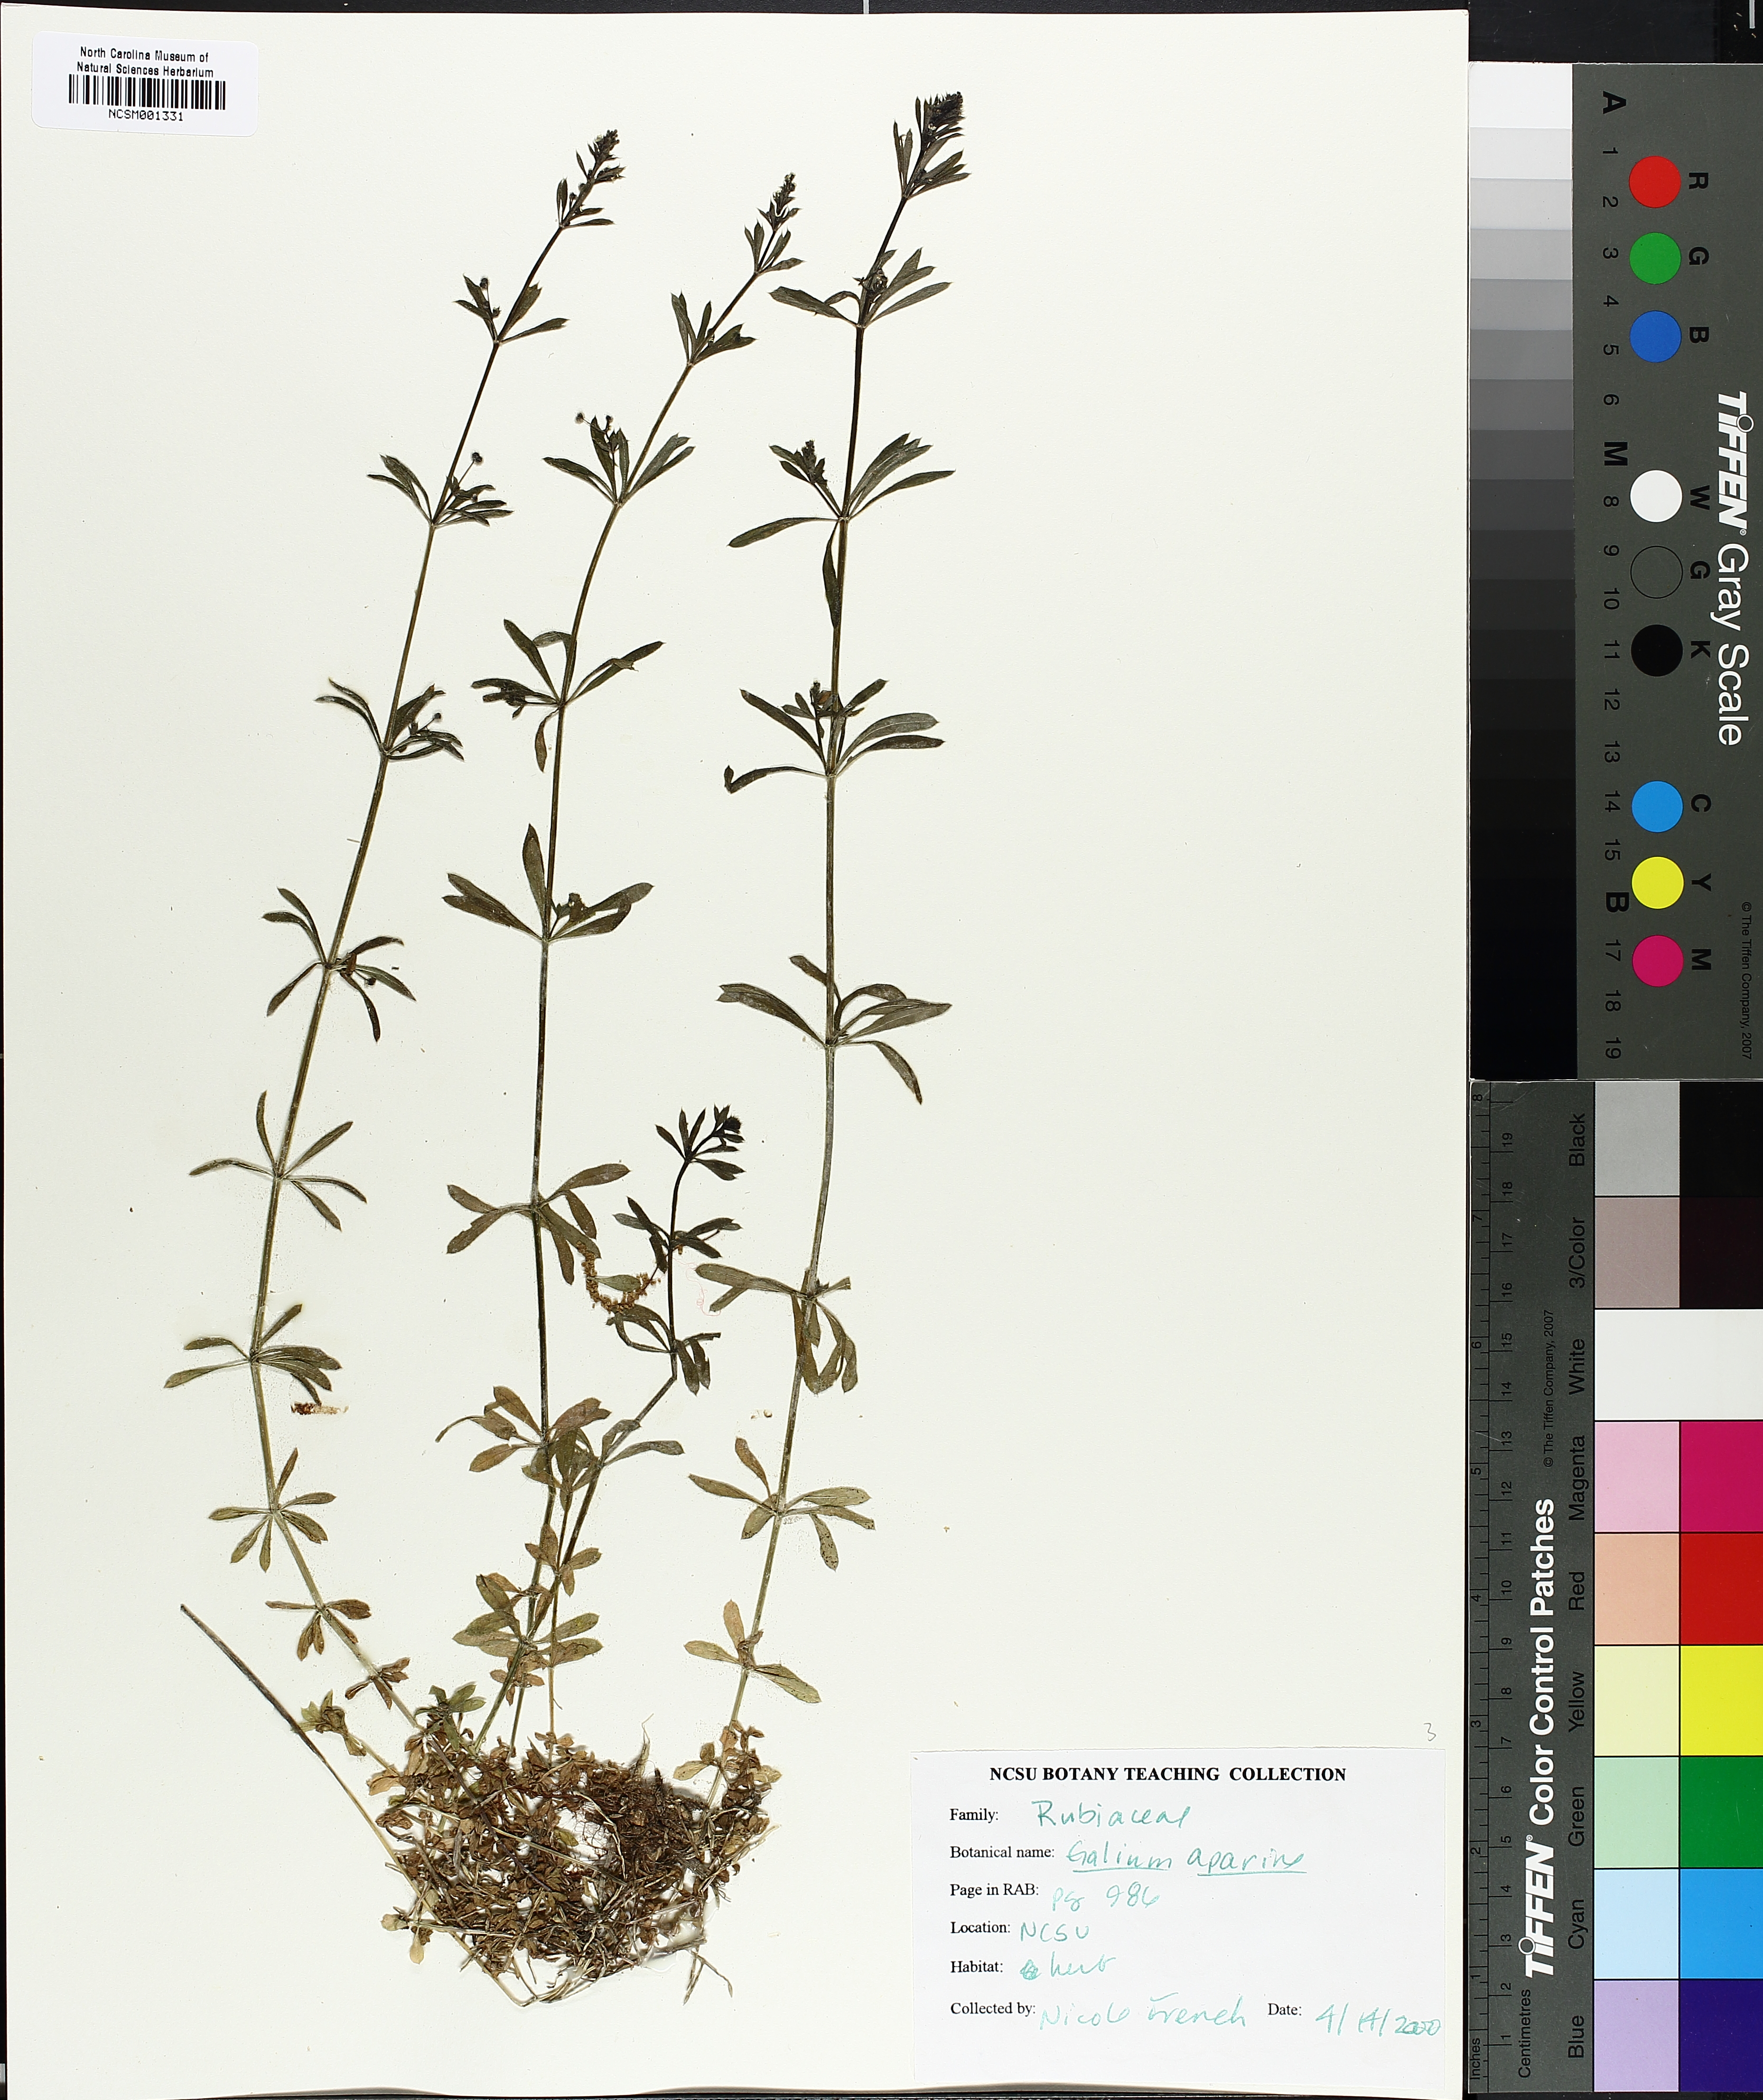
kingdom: Plantae
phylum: Tracheophyta
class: Magnoliopsida
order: Gentianales
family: Rubiaceae
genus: Galium
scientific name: Galium aparine
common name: Cleavers
